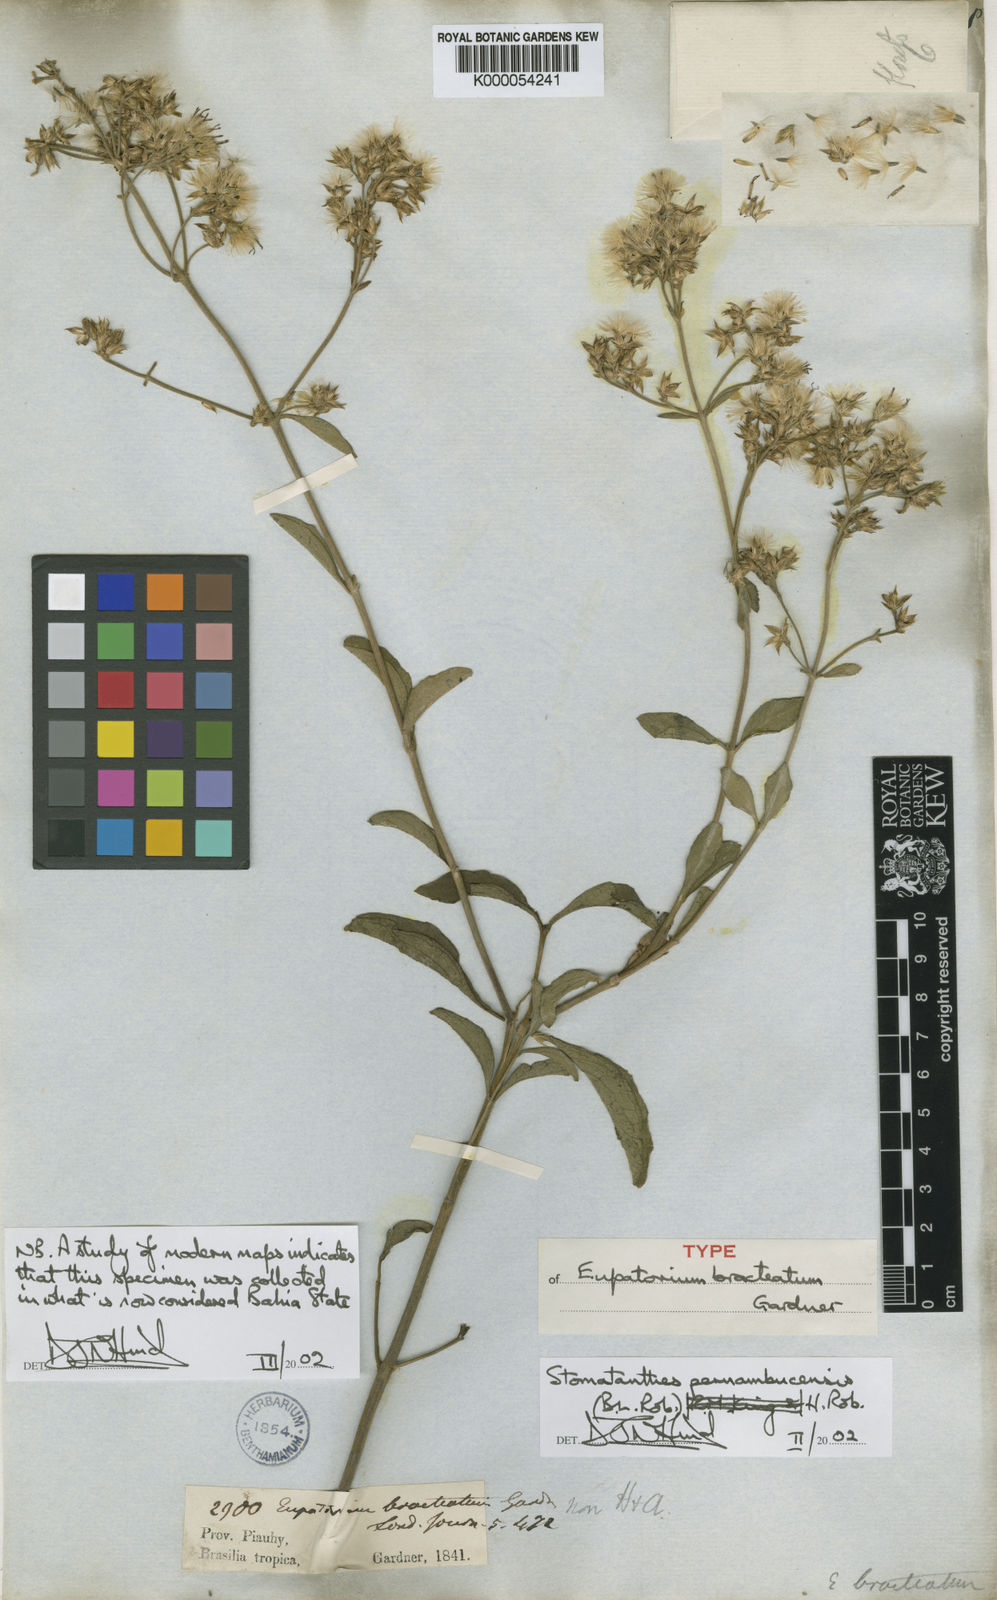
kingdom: Plantae
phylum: Tracheophyta
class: Magnoliopsida
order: Asterales
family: Asteraceae
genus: Stomatanthes
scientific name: Stomatanthes pernambucensis
